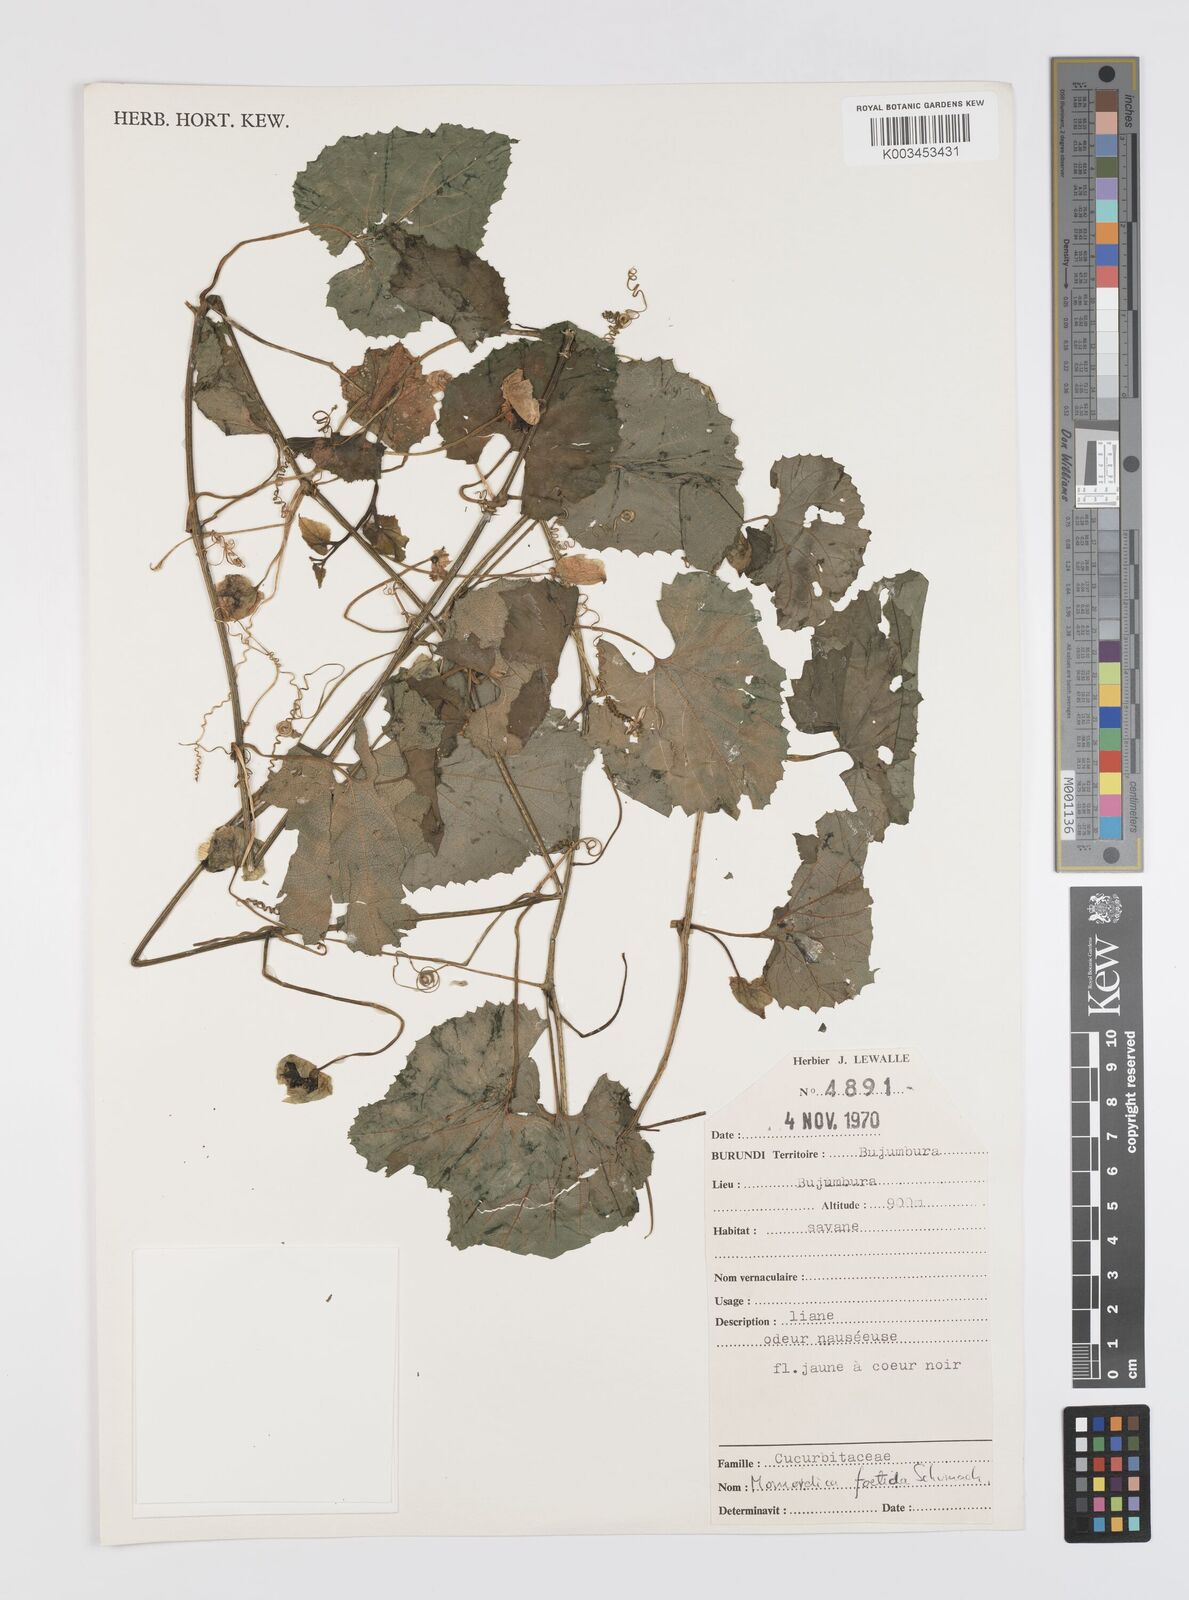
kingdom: Plantae
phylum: Tracheophyta
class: Magnoliopsida
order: Cucurbitales
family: Cucurbitaceae
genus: Momordica
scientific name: Momordica foetida
